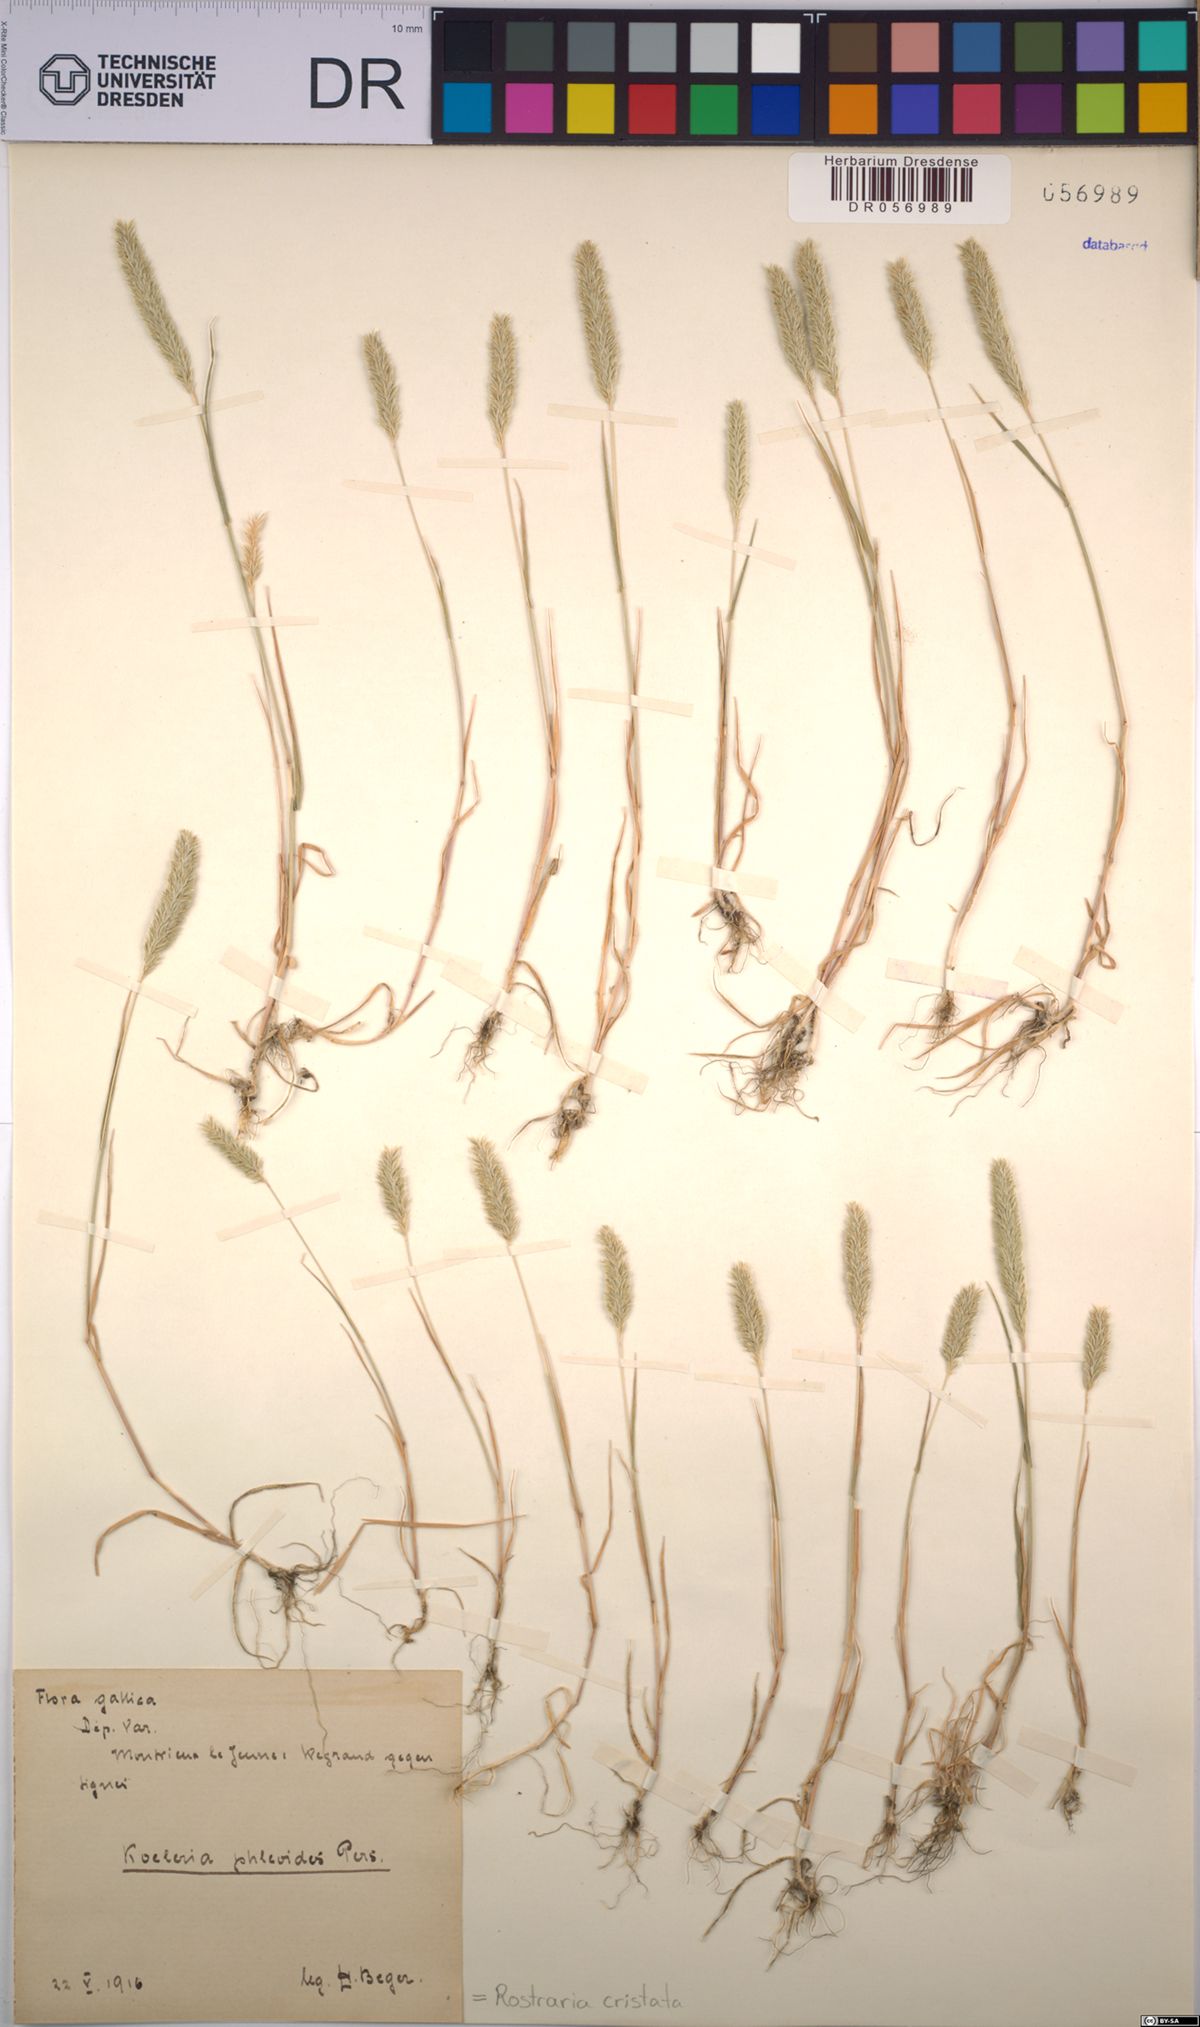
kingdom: Plantae
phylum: Tracheophyta
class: Liliopsida
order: Poales
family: Poaceae
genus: Rostraria
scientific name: Rostraria cristata
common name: Mediterranean hair-grass
